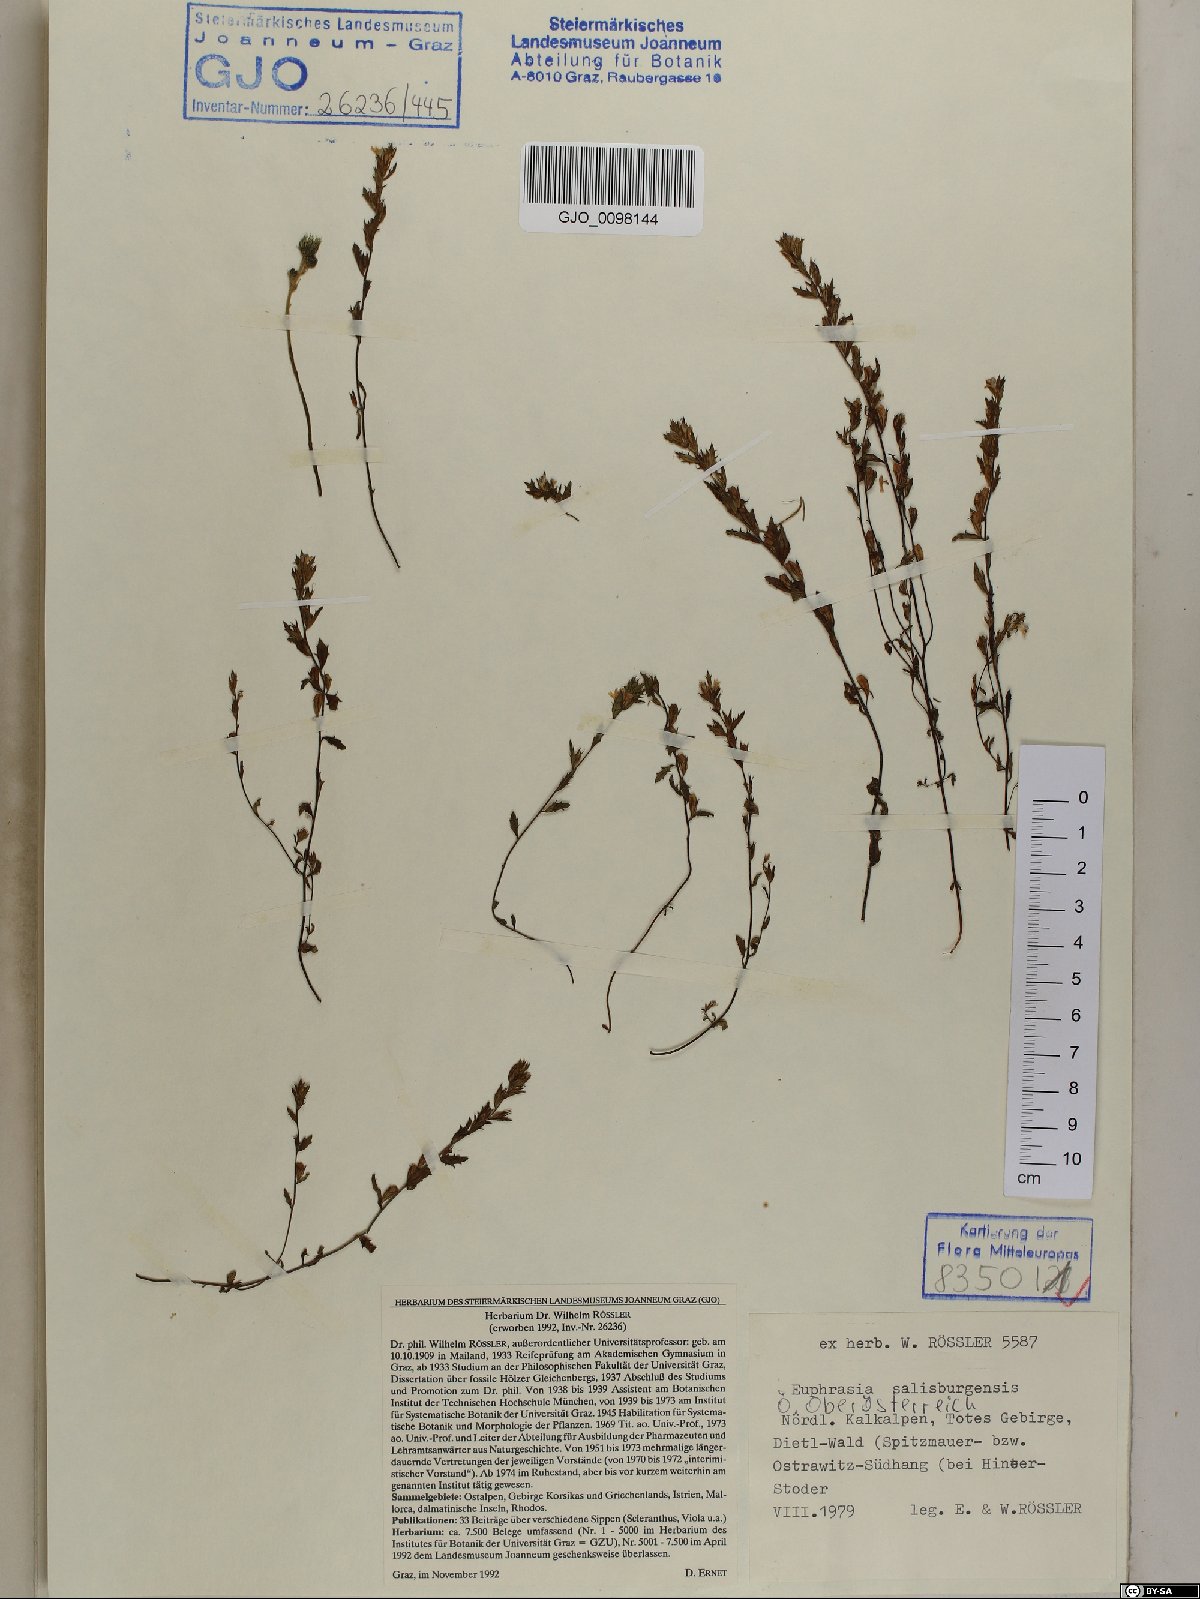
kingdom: Plantae
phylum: Tracheophyta
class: Magnoliopsida
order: Lamiales
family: Orobanchaceae
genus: Euphrasia
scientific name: Euphrasia salisburgensis
